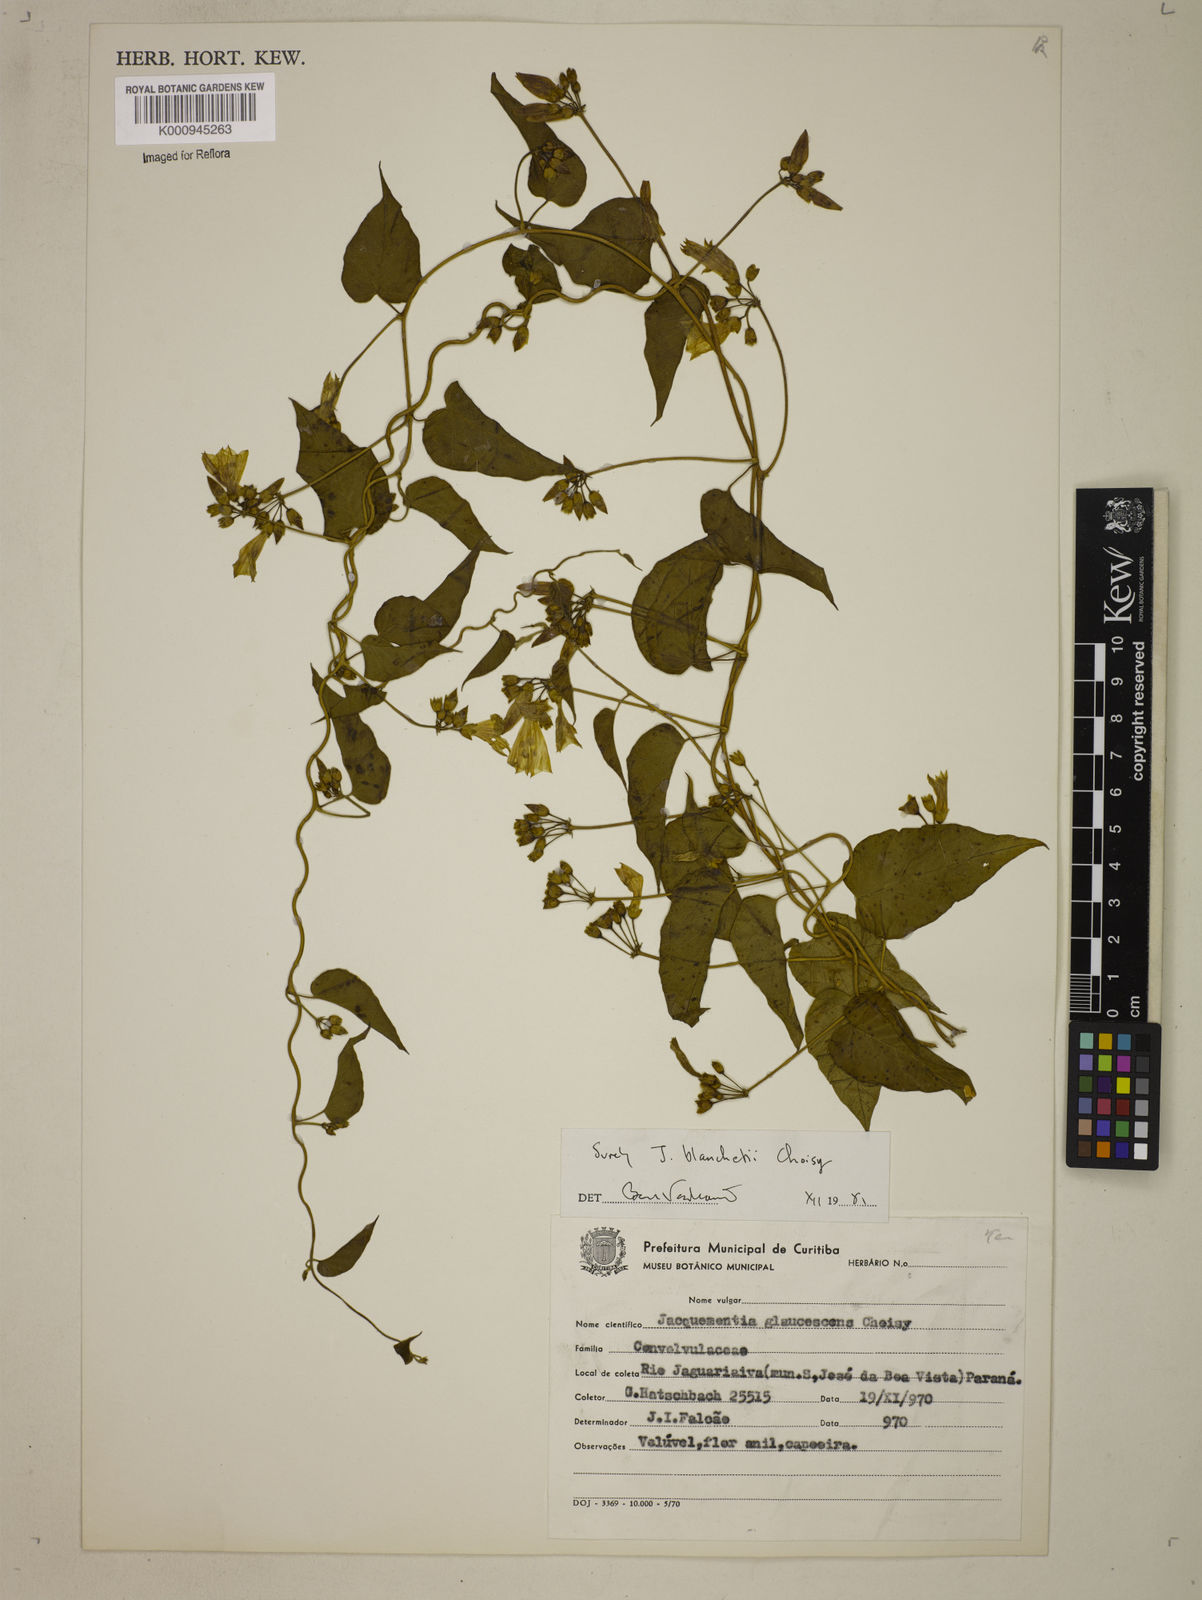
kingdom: Plantae
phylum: Tracheophyta
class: Magnoliopsida
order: Solanales
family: Convolvulaceae
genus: Jacquemontia
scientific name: Jacquemontia blanchetii
